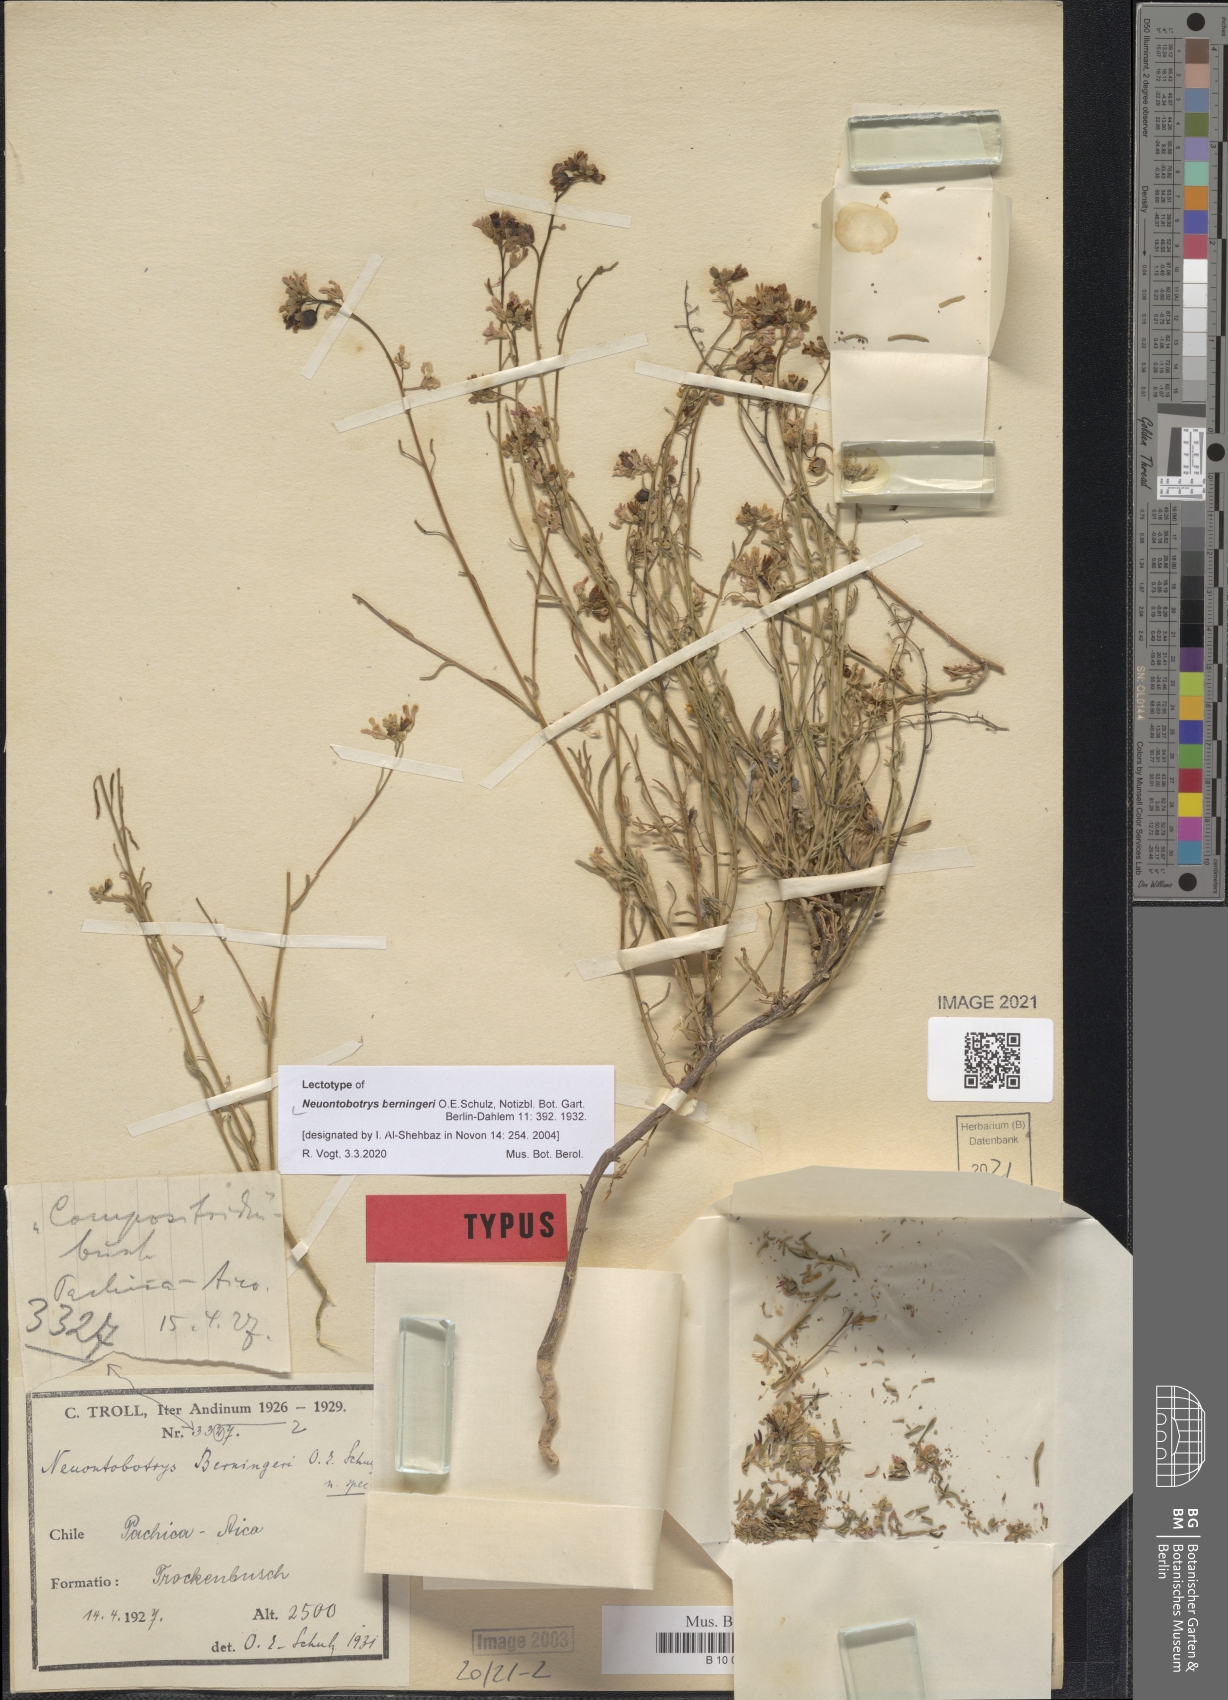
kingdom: Plantae
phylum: Tracheophyta
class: Magnoliopsida
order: Brassicales
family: Brassicaceae
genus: Neuontobotrys
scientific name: Neuontobotrys berningeri
